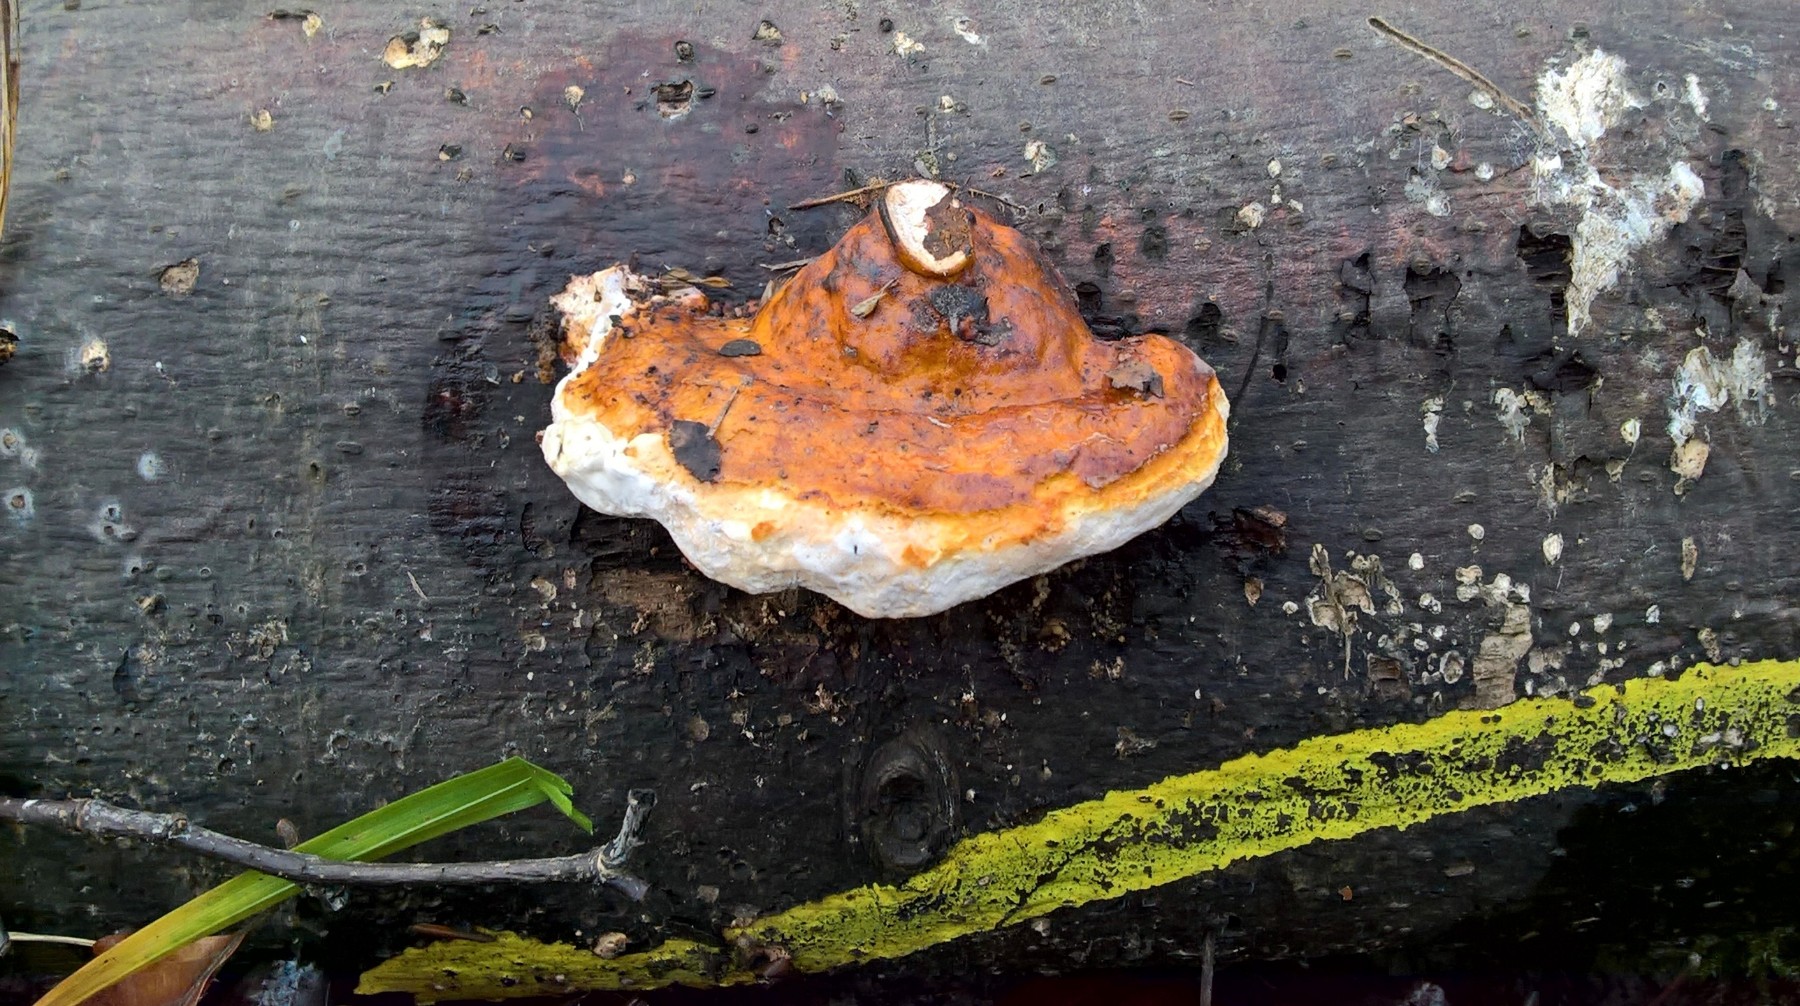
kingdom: Fungi
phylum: Basidiomycota
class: Agaricomycetes
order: Polyporales
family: Fomitopsidaceae
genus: Fomitopsis
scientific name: Fomitopsis pinicola
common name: randbæltet hovporesvamp
